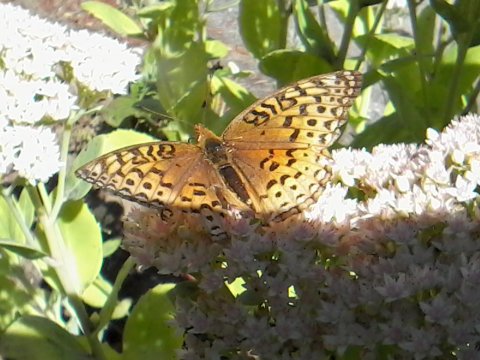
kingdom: Animalia
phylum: Arthropoda
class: Insecta
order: Lepidoptera
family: Nymphalidae
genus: Speyeria
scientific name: Speyeria aphrodite
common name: Aphrodite Fritillary
